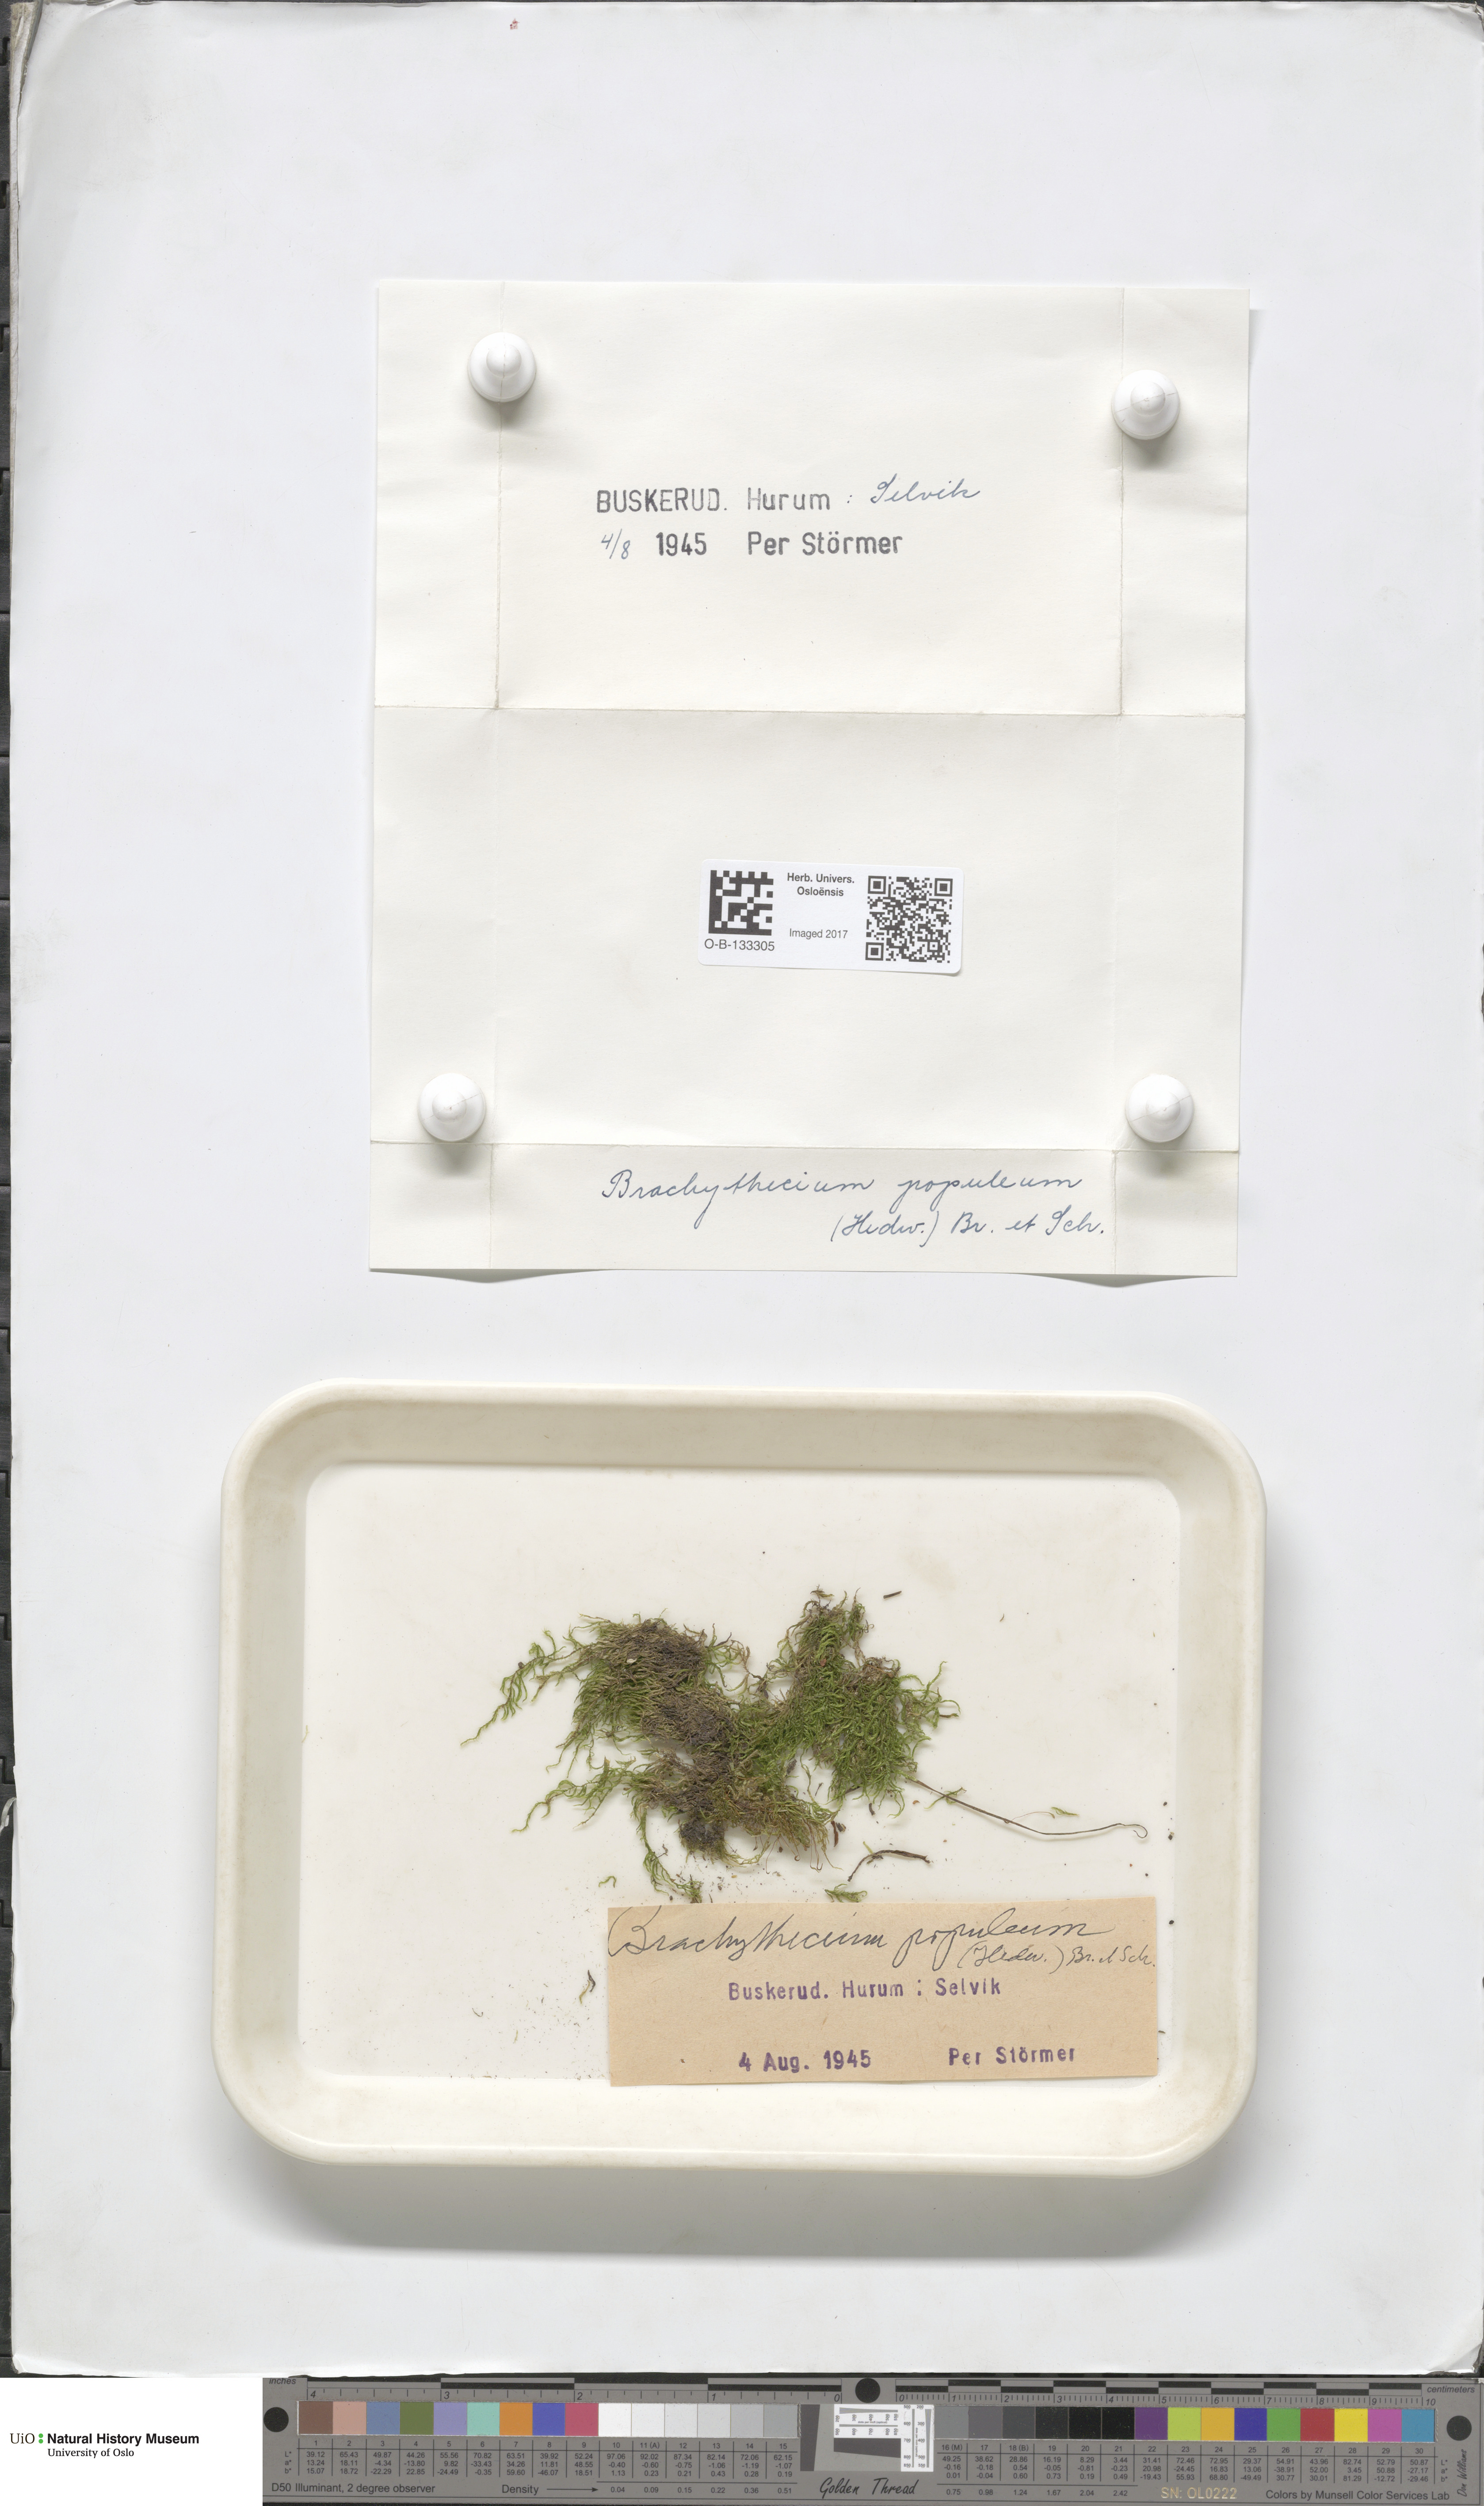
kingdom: Plantae
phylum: Bryophyta
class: Bryopsida
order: Hypnales
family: Brachytheciaceae
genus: Sciuro-hypnum
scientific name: Sciuro-hypnum plumosum
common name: Rusty feather-moss
